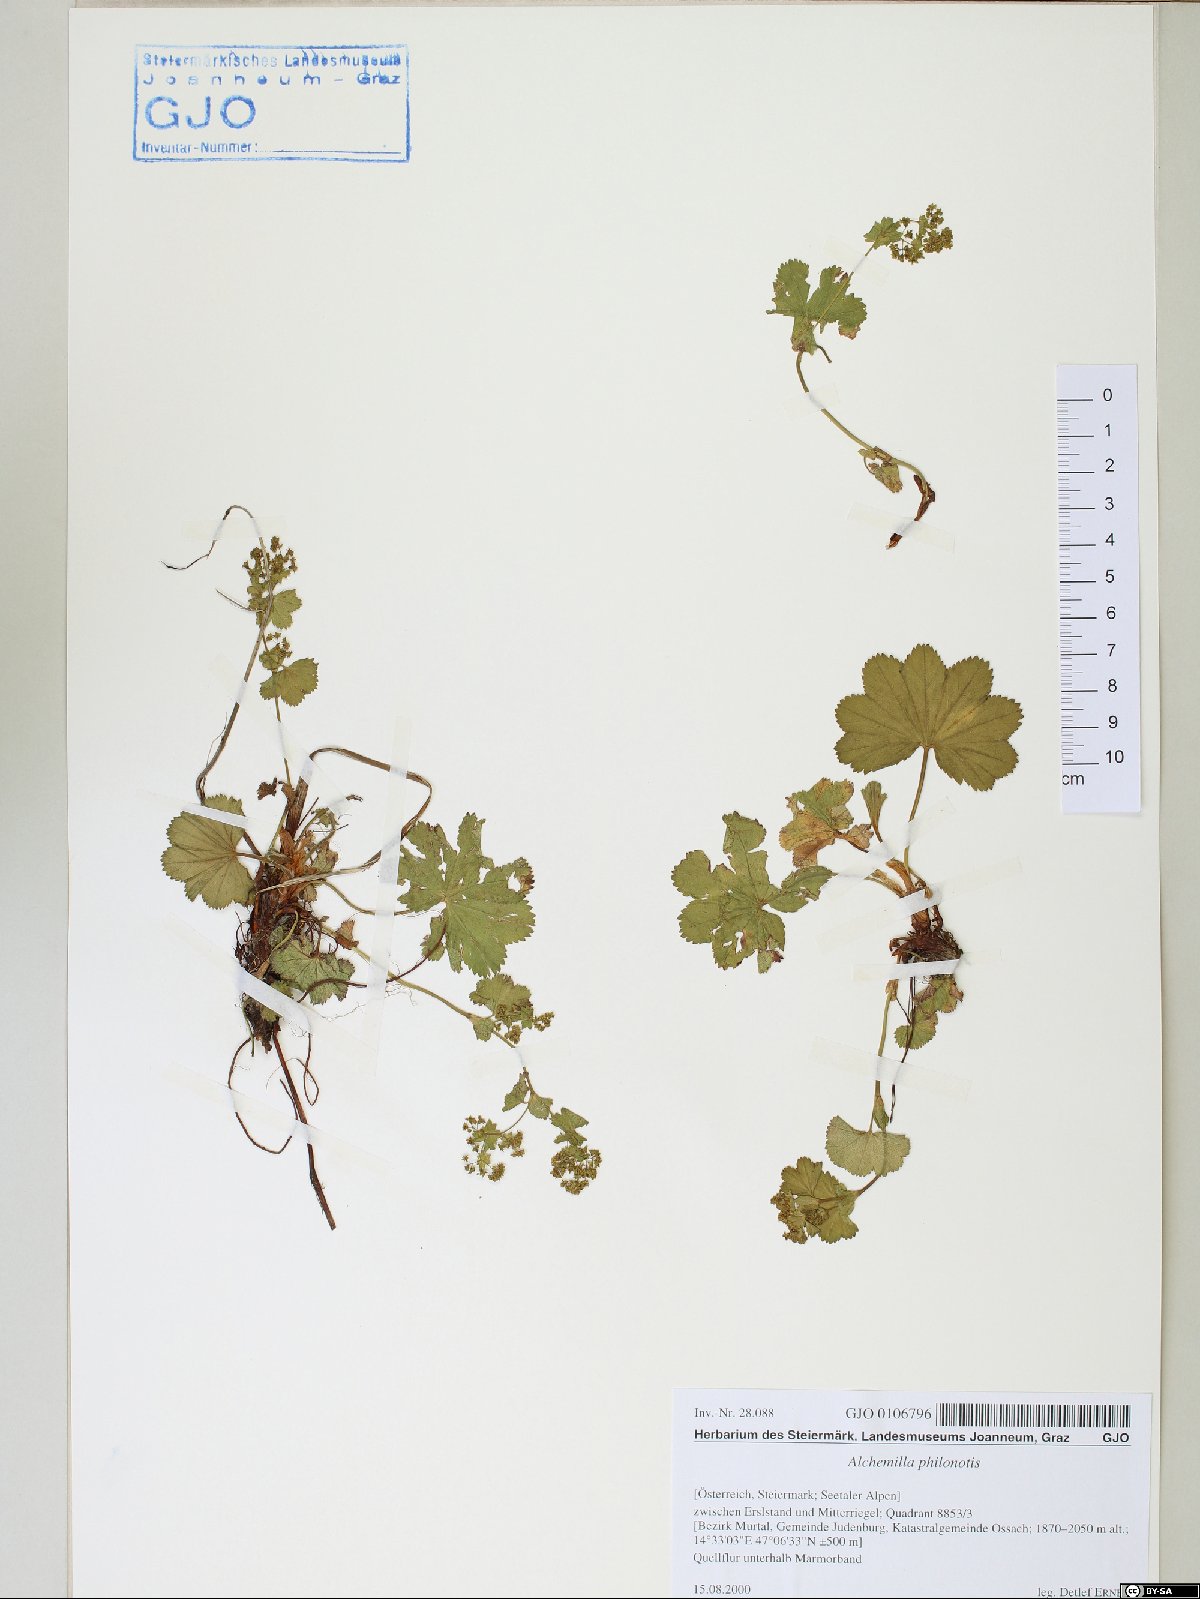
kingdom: Plantae
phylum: Tracheophyta
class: Magnoliopsida
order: Rosales
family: Rosaceae
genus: Alchemilla
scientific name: Alchemilla philonotis
